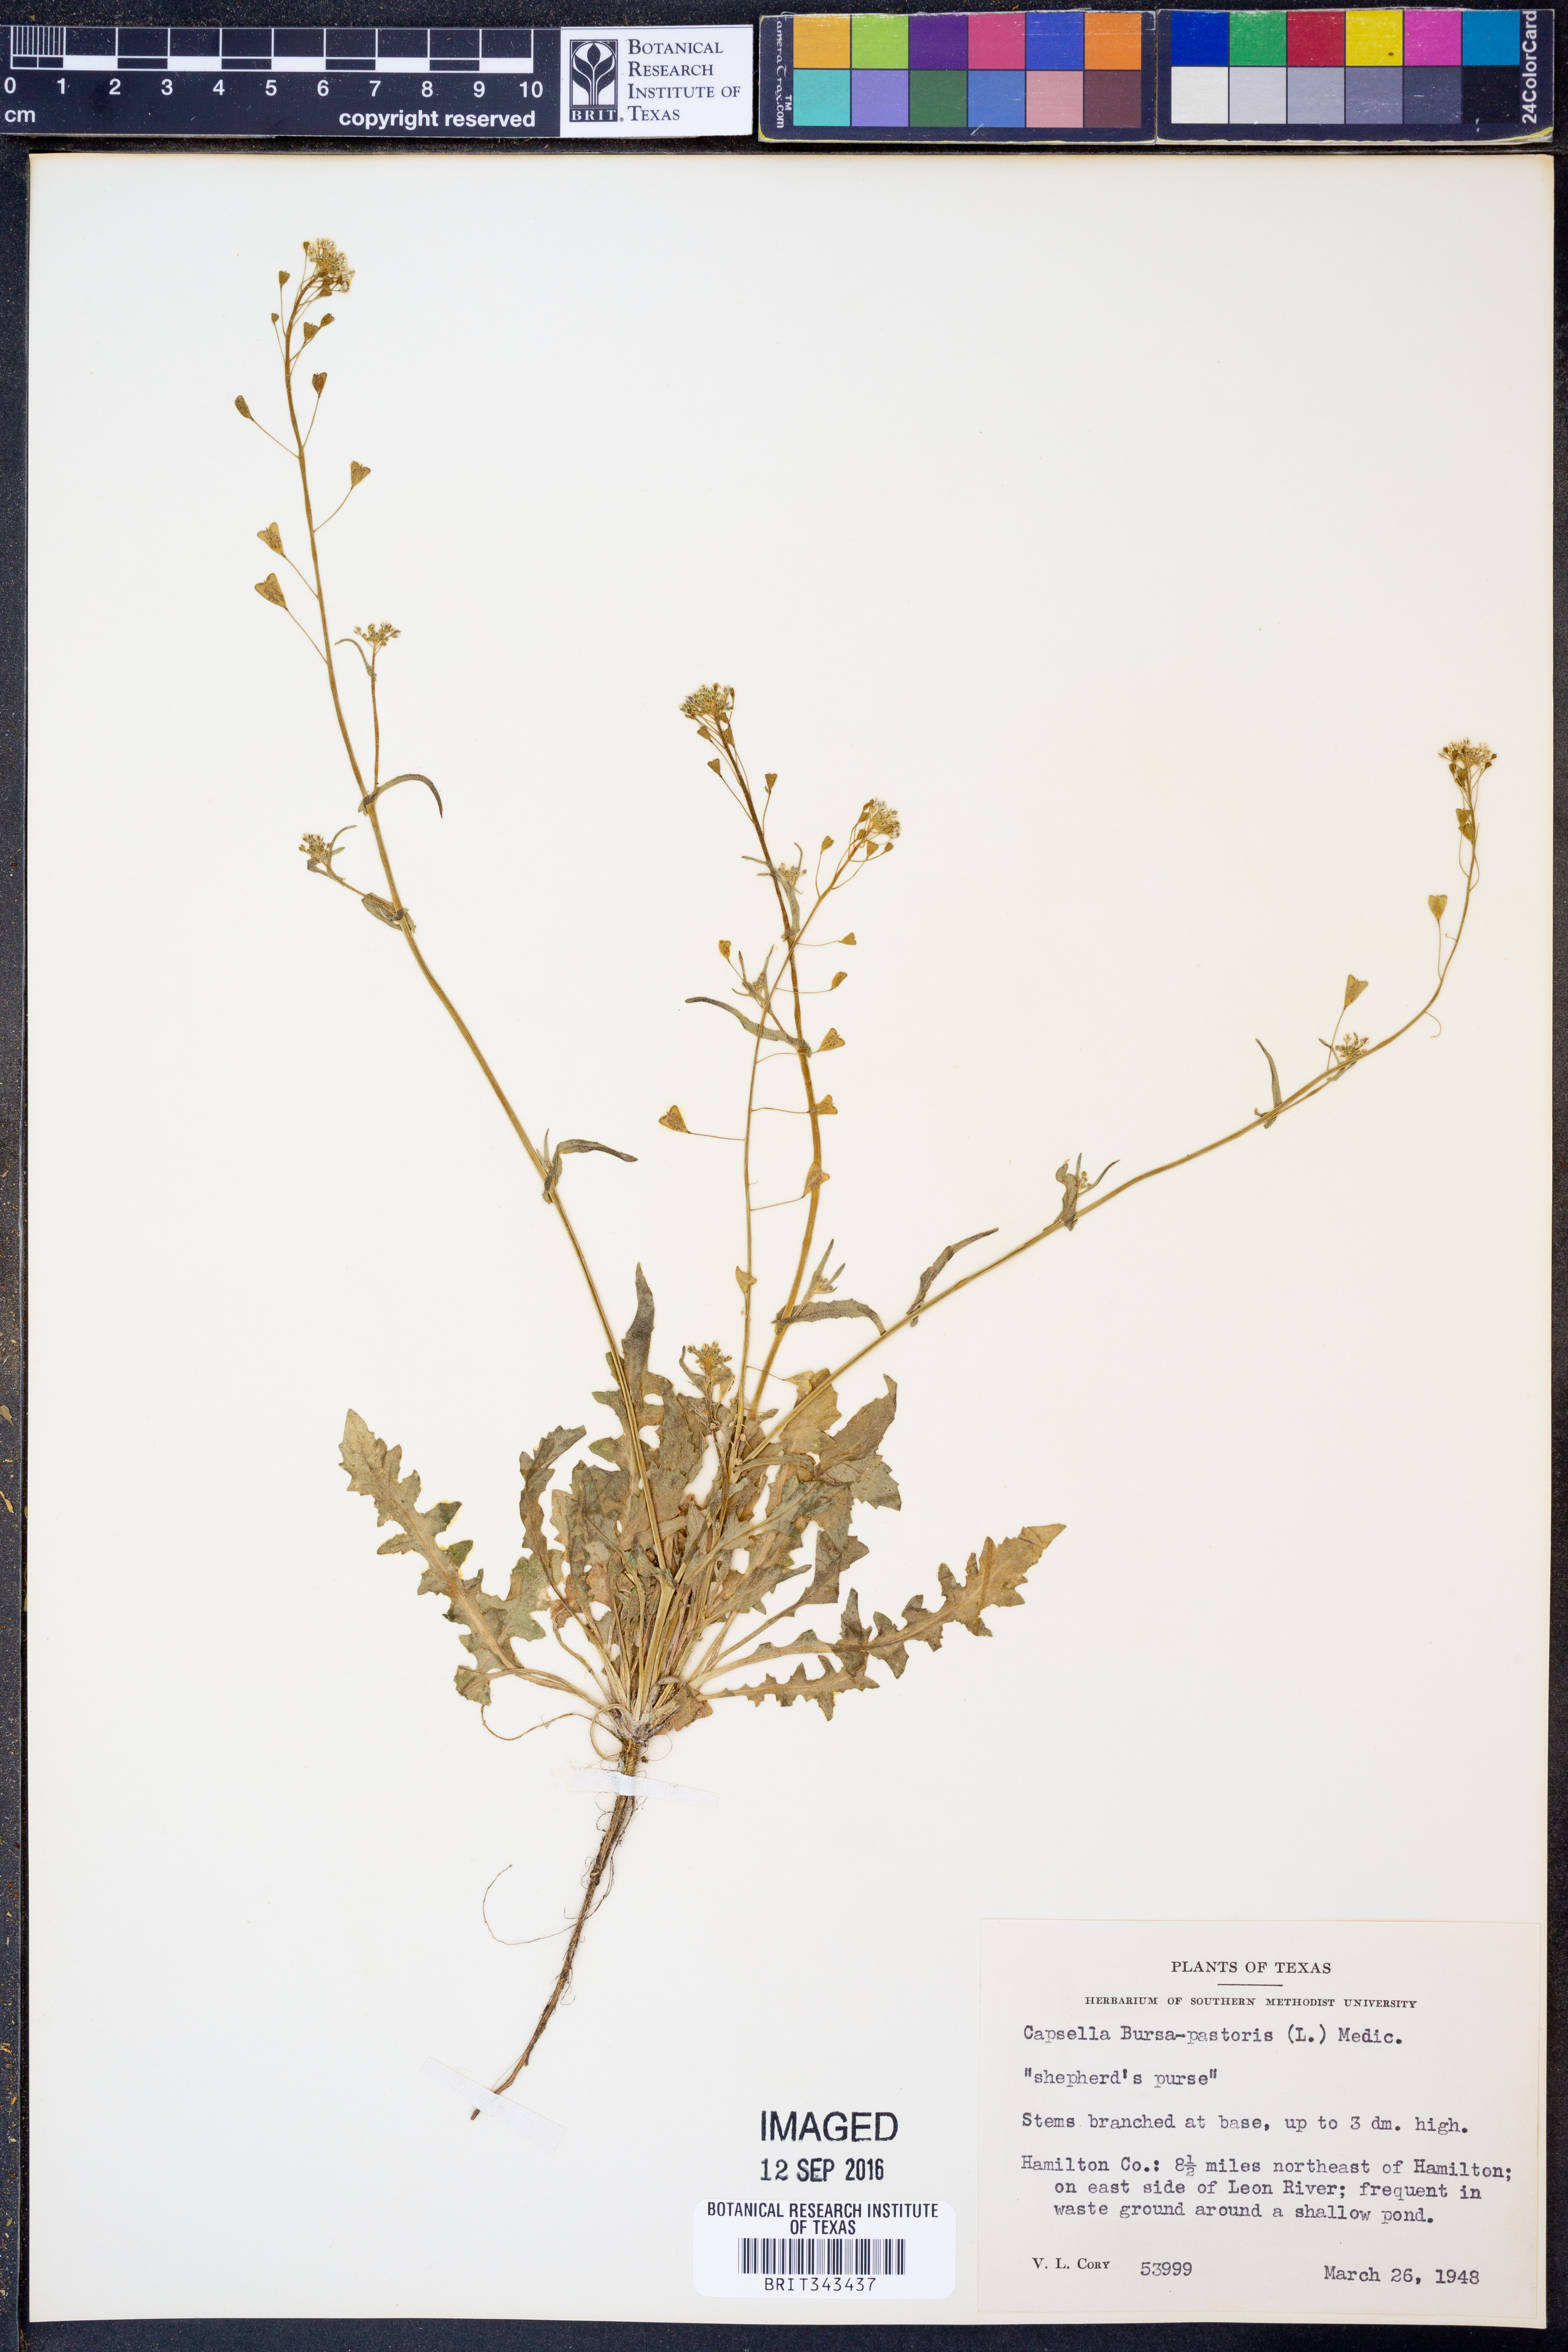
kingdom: Plantae
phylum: Tracheophyta
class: Magnoliopsida
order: Brassicales
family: Brassicaceae
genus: Capsella
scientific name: Capsella bursa-pastoris
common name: Shepherd's purse
